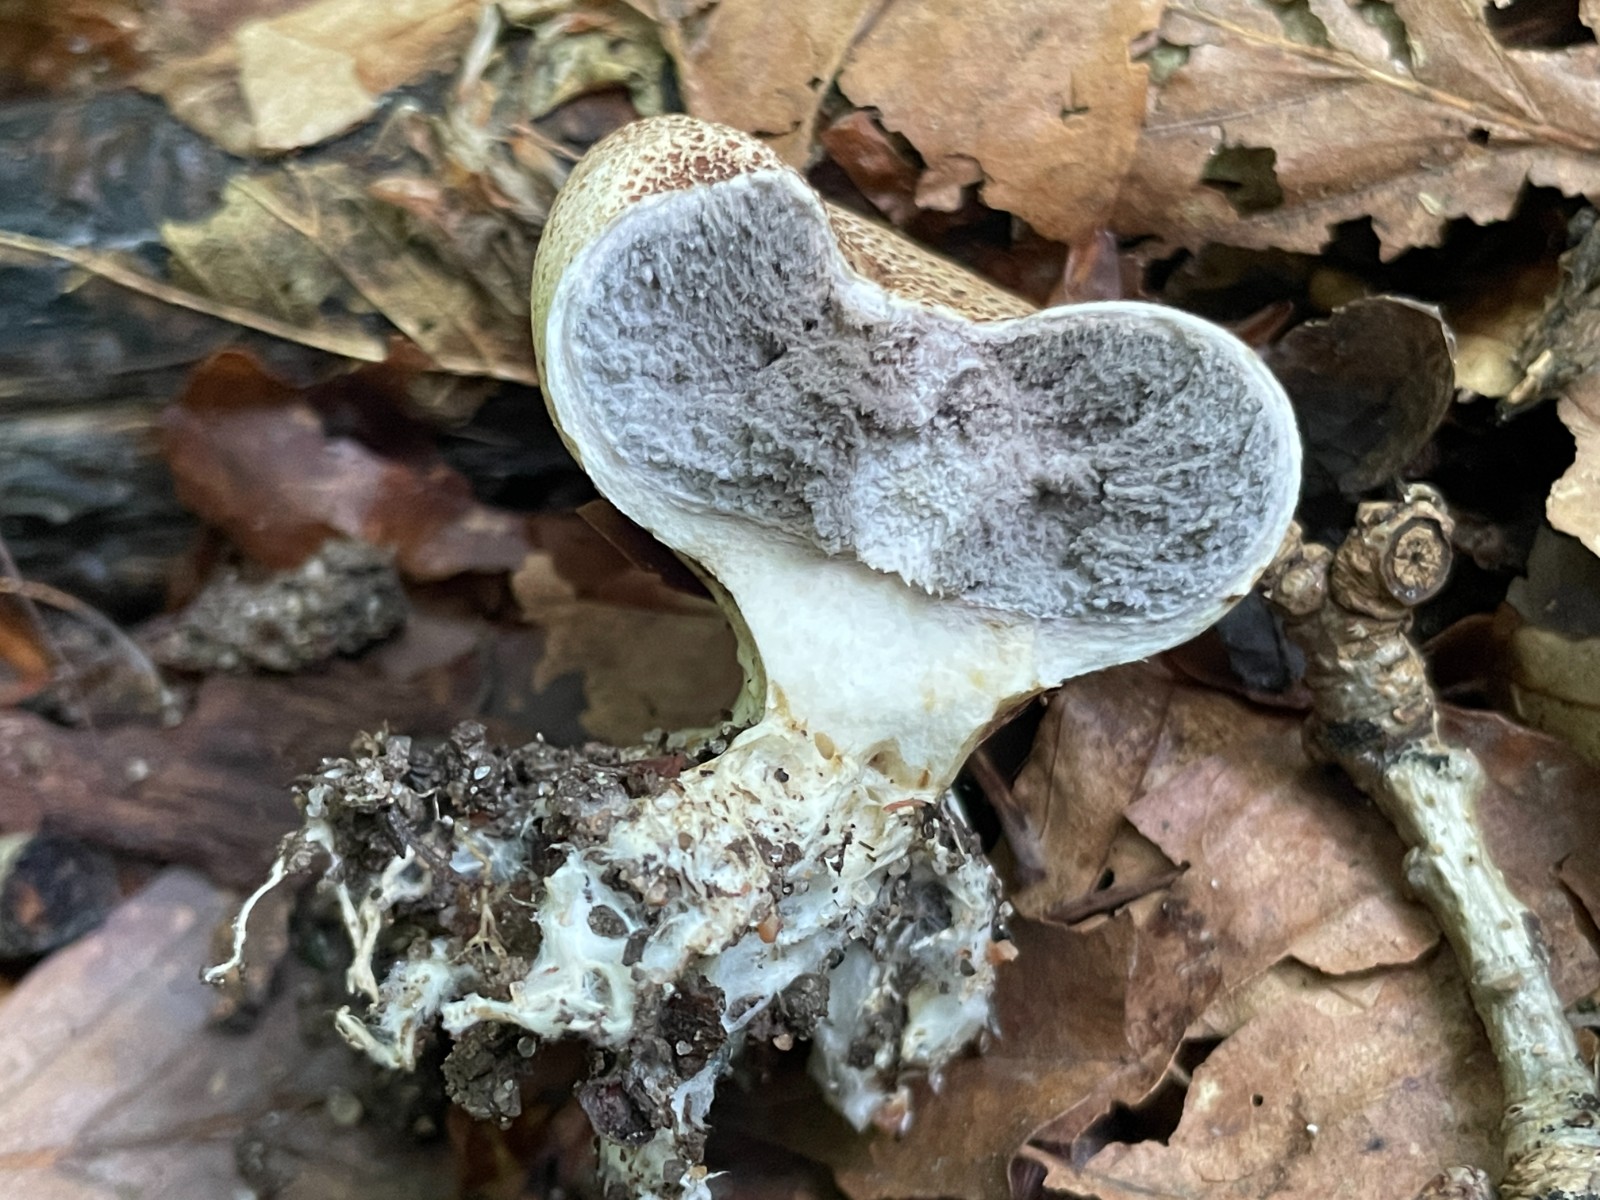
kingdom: Fungi
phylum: Basidiomycota
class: Agaricomycetes
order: Boletales
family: Sclerodermataceae
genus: Scleroderma
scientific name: Scleroderma areolatum
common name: plettet bruskbold
